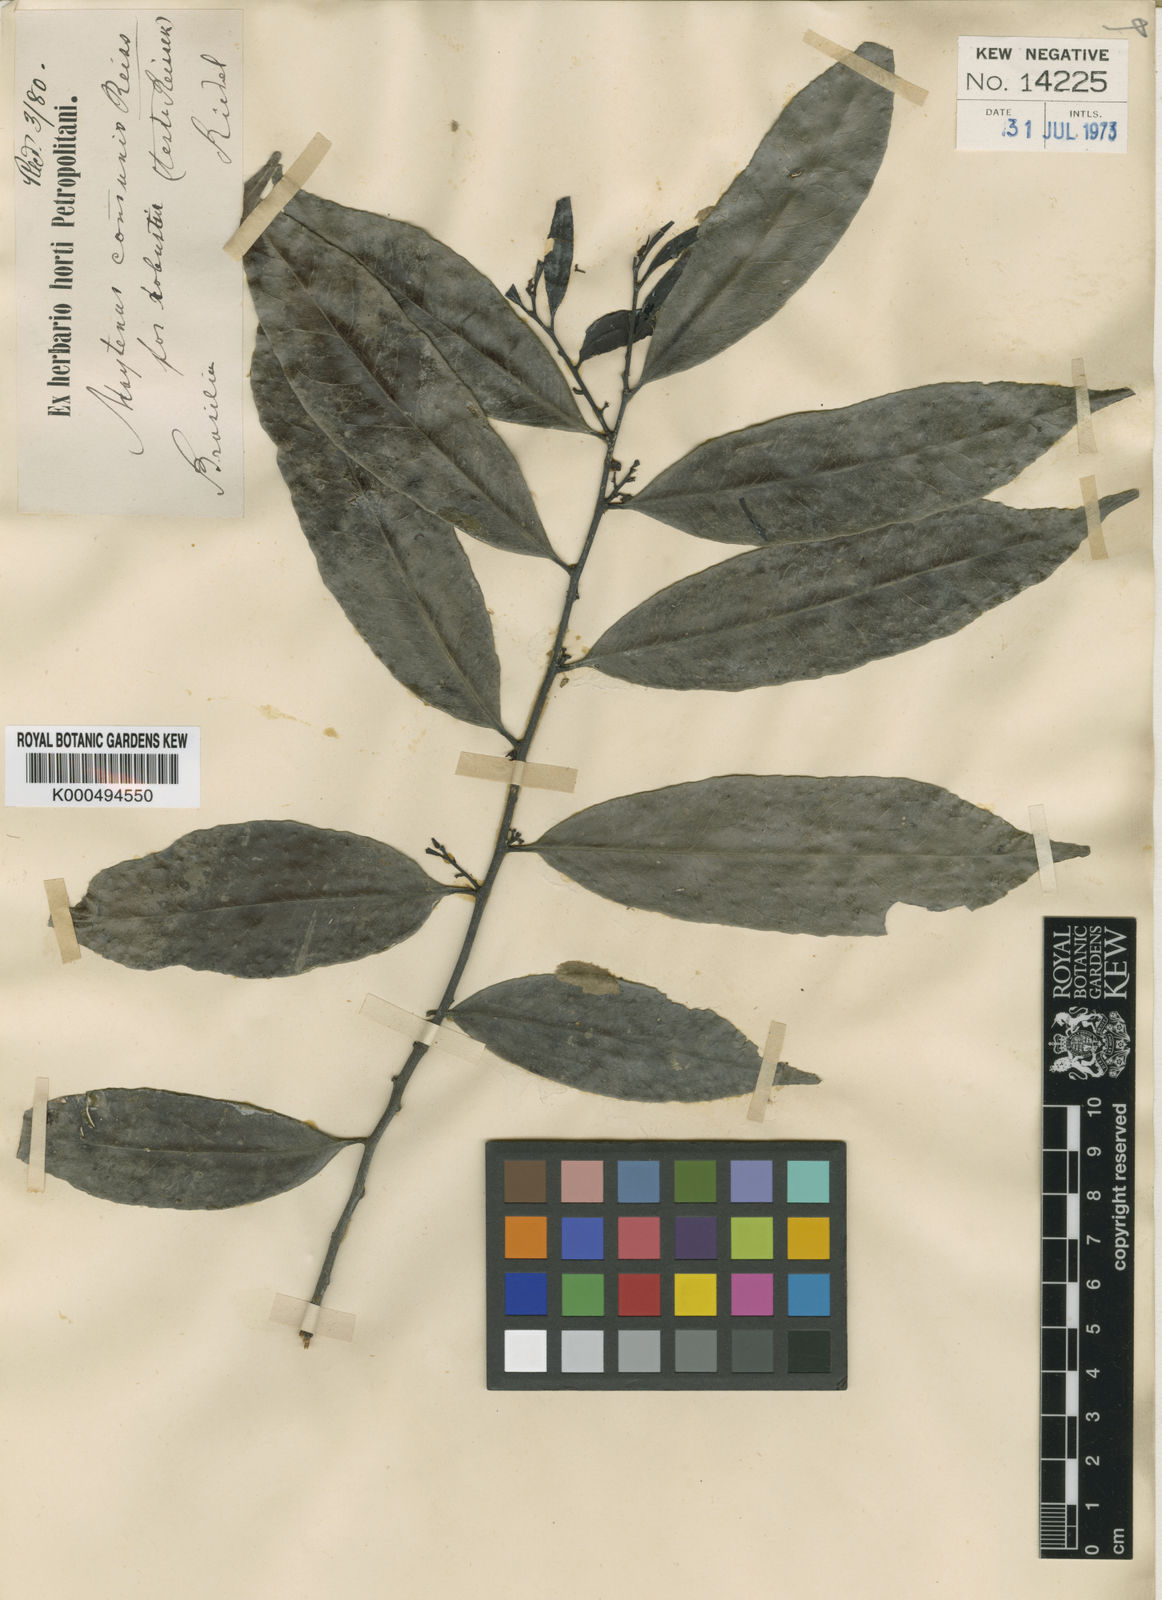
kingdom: Plantae
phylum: Tracheophyta
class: Magnoliopsida
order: Celastrales
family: Celastraceae
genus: Monteverdia
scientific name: Monteverdia communis
